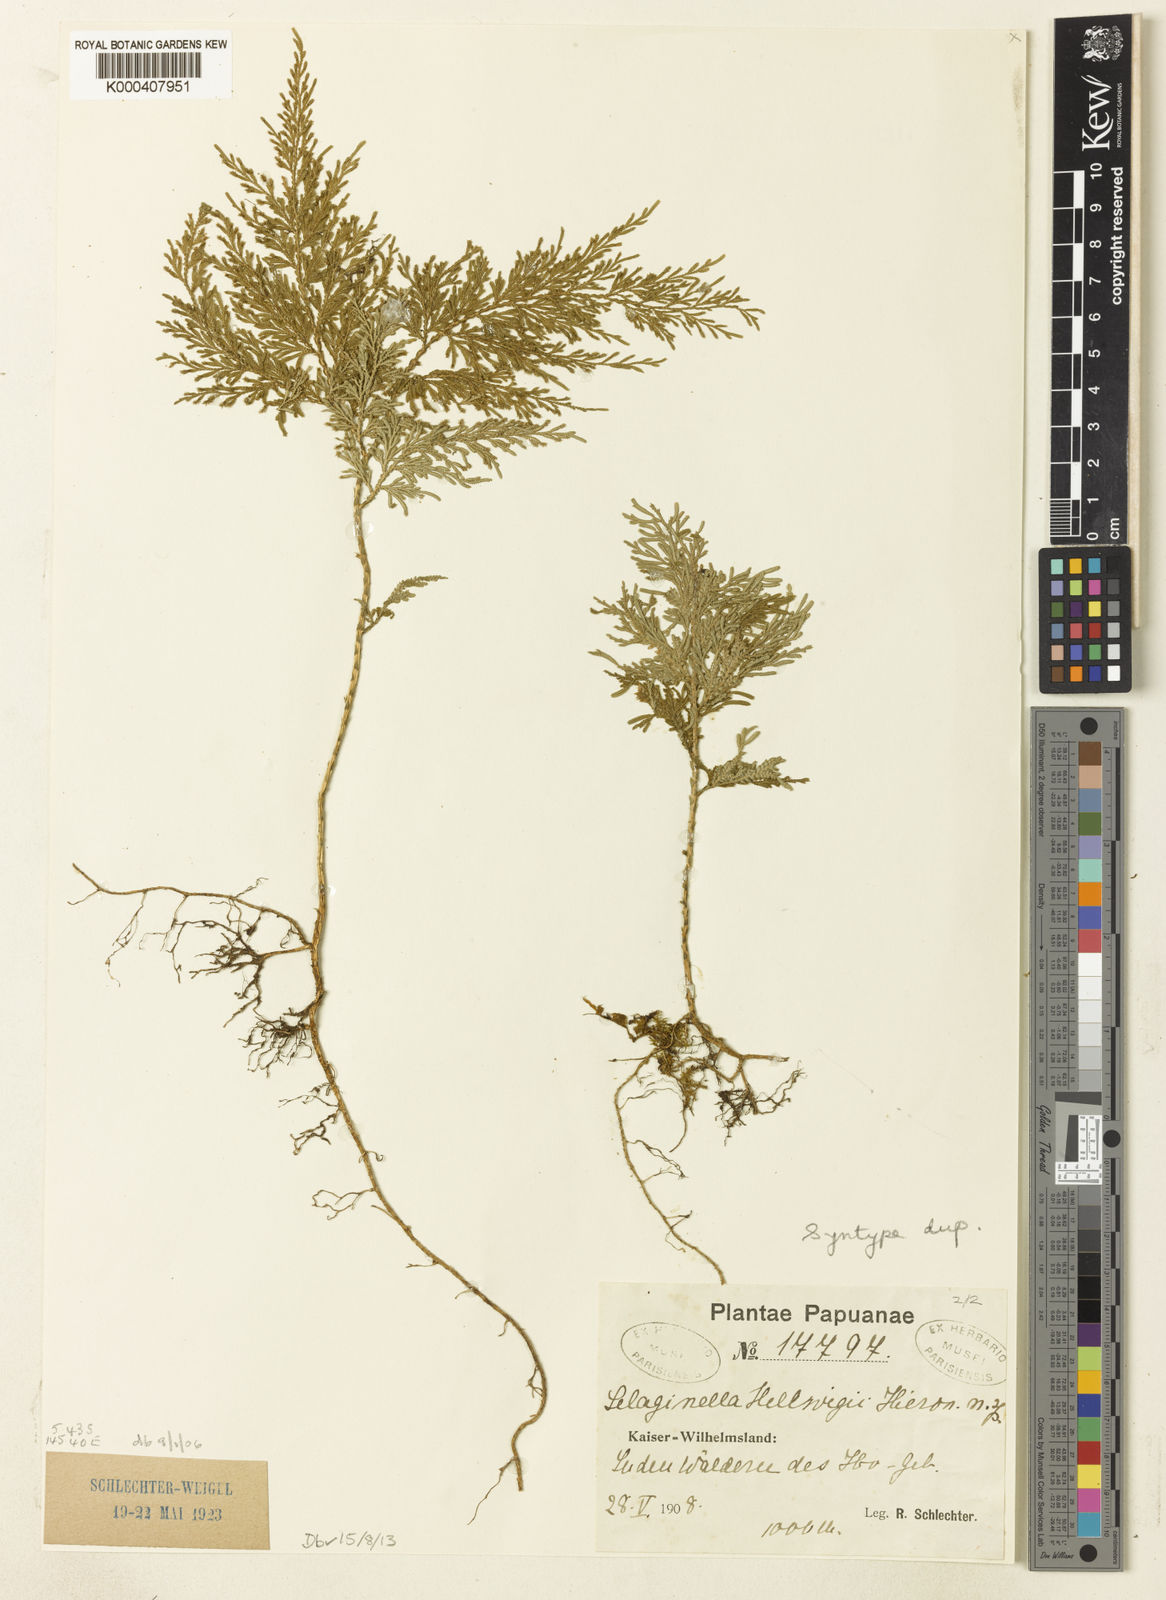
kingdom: Plantae
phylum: Tracheophyta
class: Lycopodiopsida
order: Selaginellales
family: Selaginellaceae
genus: Selaginella
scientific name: Selaginella hellwigii
